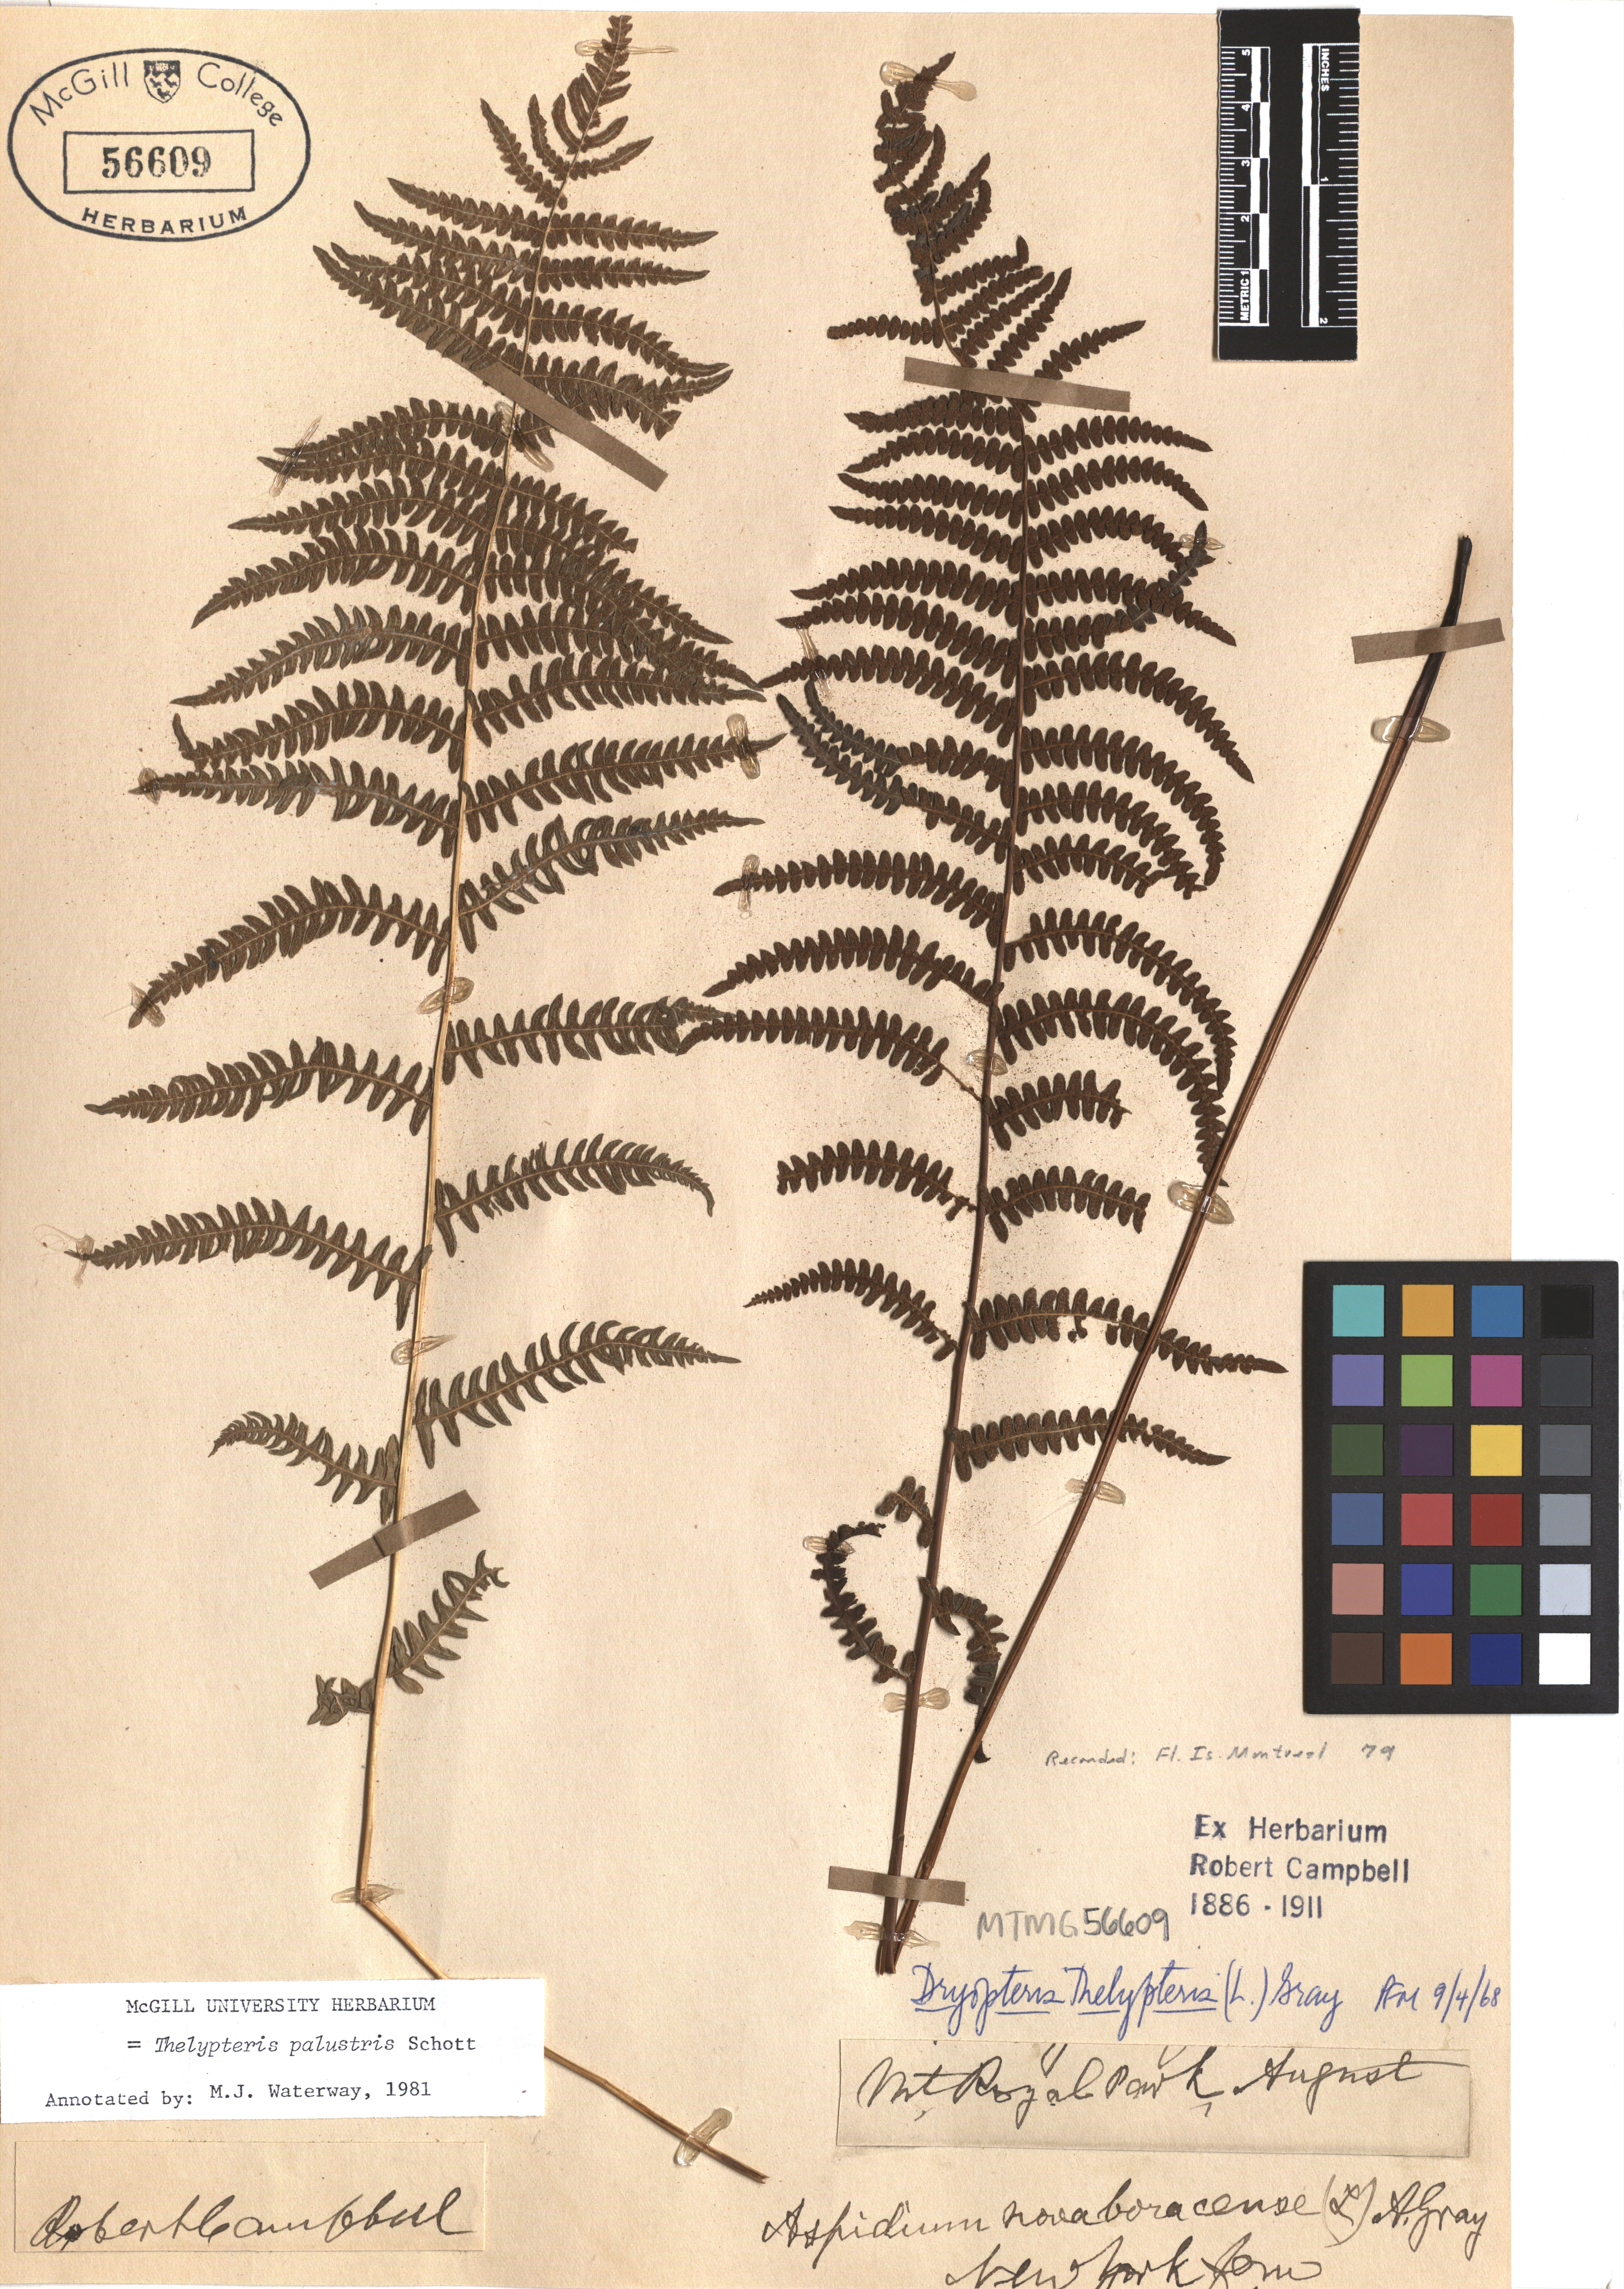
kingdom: Plantae
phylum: Tracheophyta
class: Polypodiopsida
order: Polypodiales
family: Thelypteridaceae
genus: Thelypteris
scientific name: Thelypteris palustris
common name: Marsh fern
